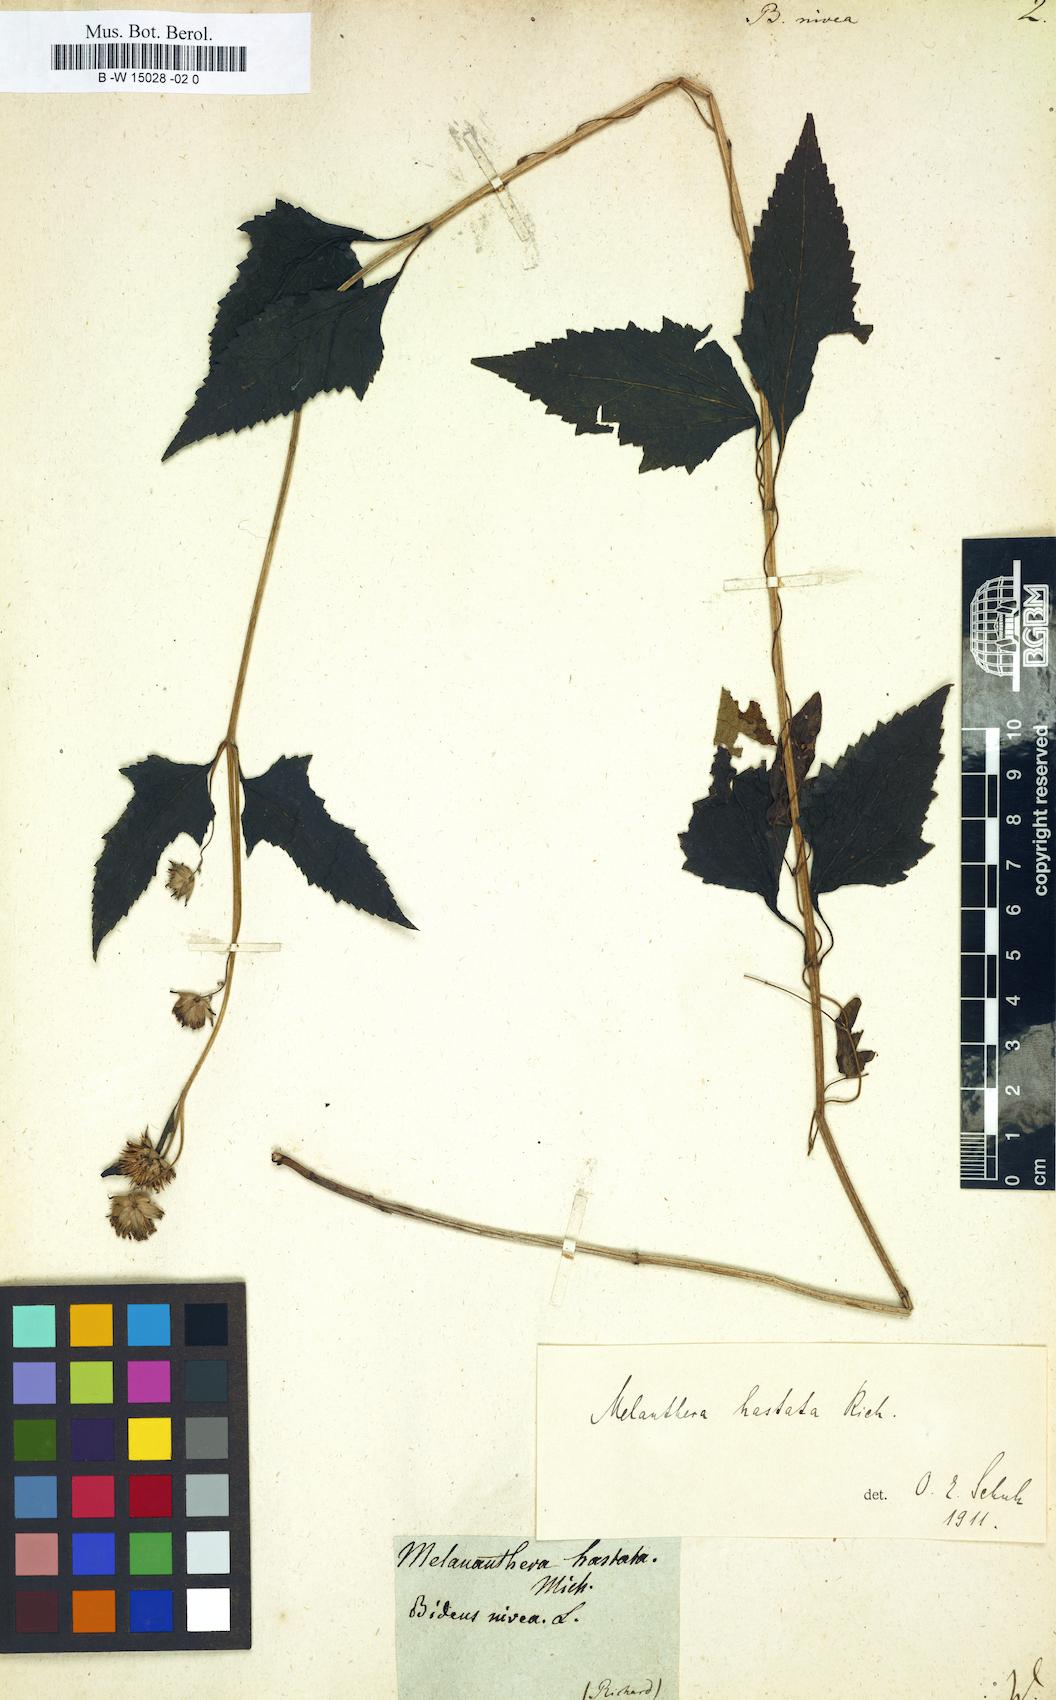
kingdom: Plantae
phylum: Tracheophyta
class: Magnoliopsida
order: Asterales
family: Asteraceae
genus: Bidens
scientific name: Bidens nivea
